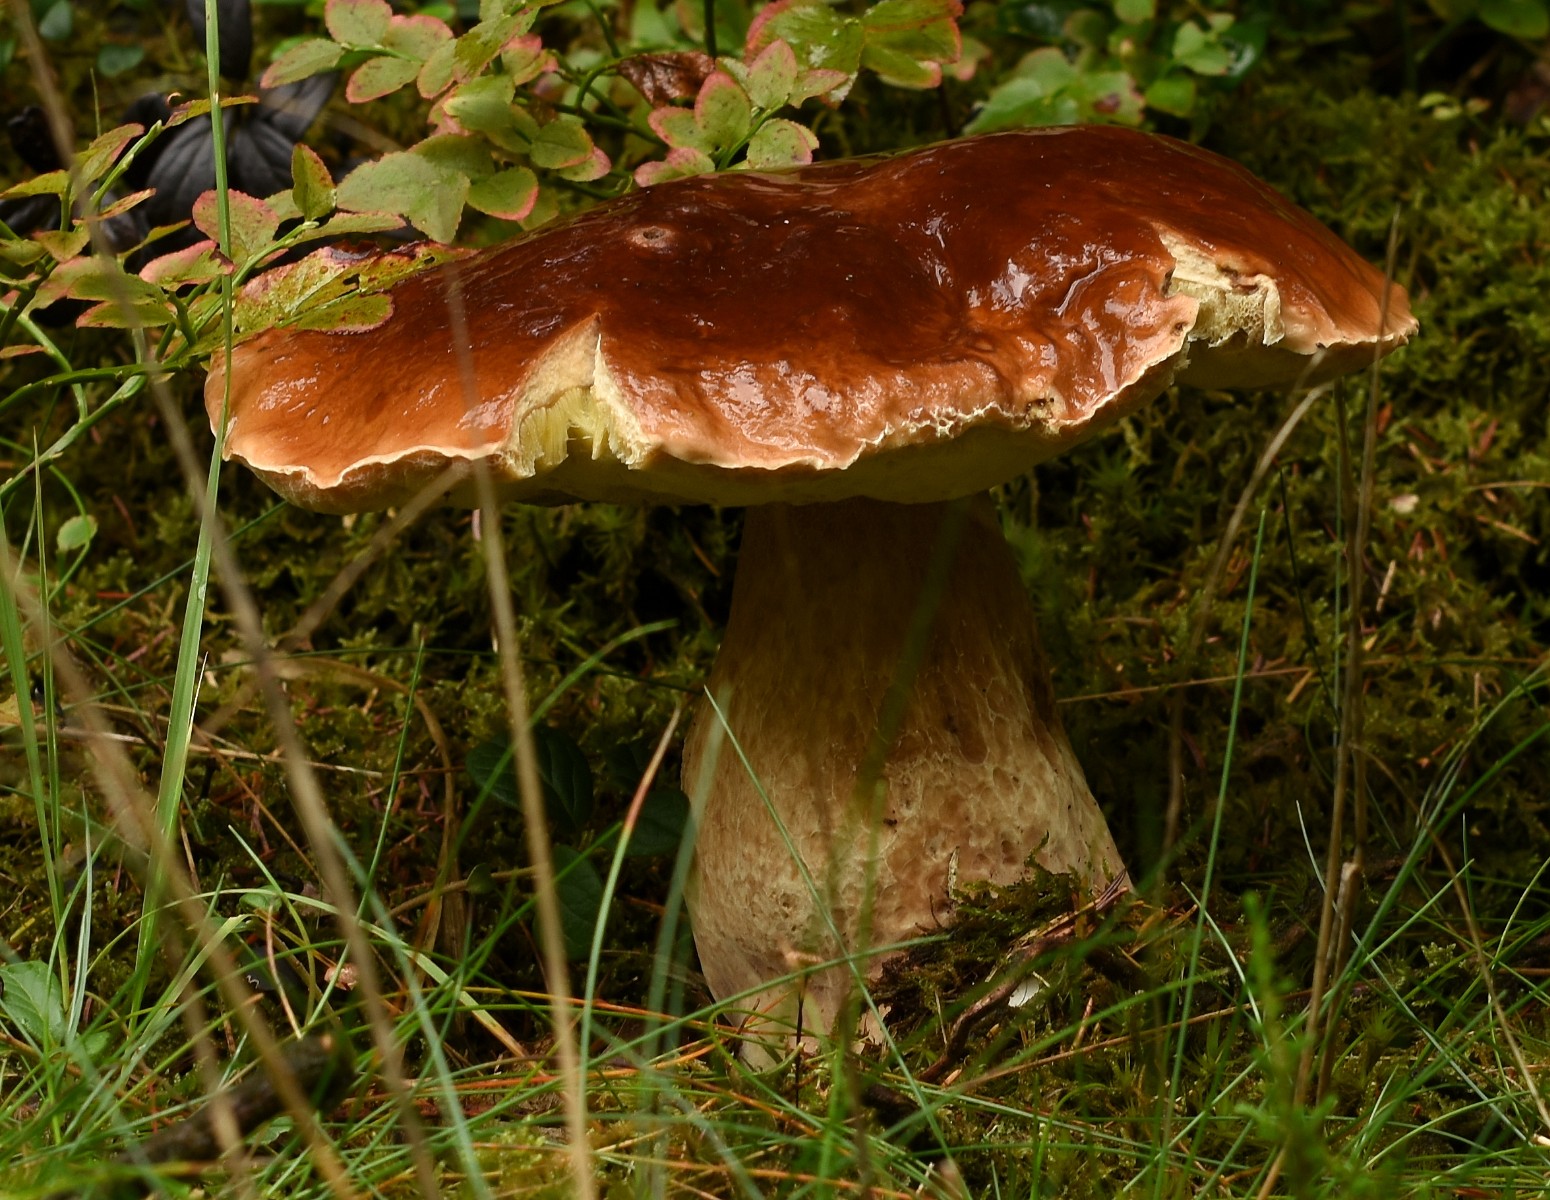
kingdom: Fungi
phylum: Basidiomycota
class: Agaricomycetes
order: Boletales
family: Boletaceae
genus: Boletus
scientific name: Boletus edulis
